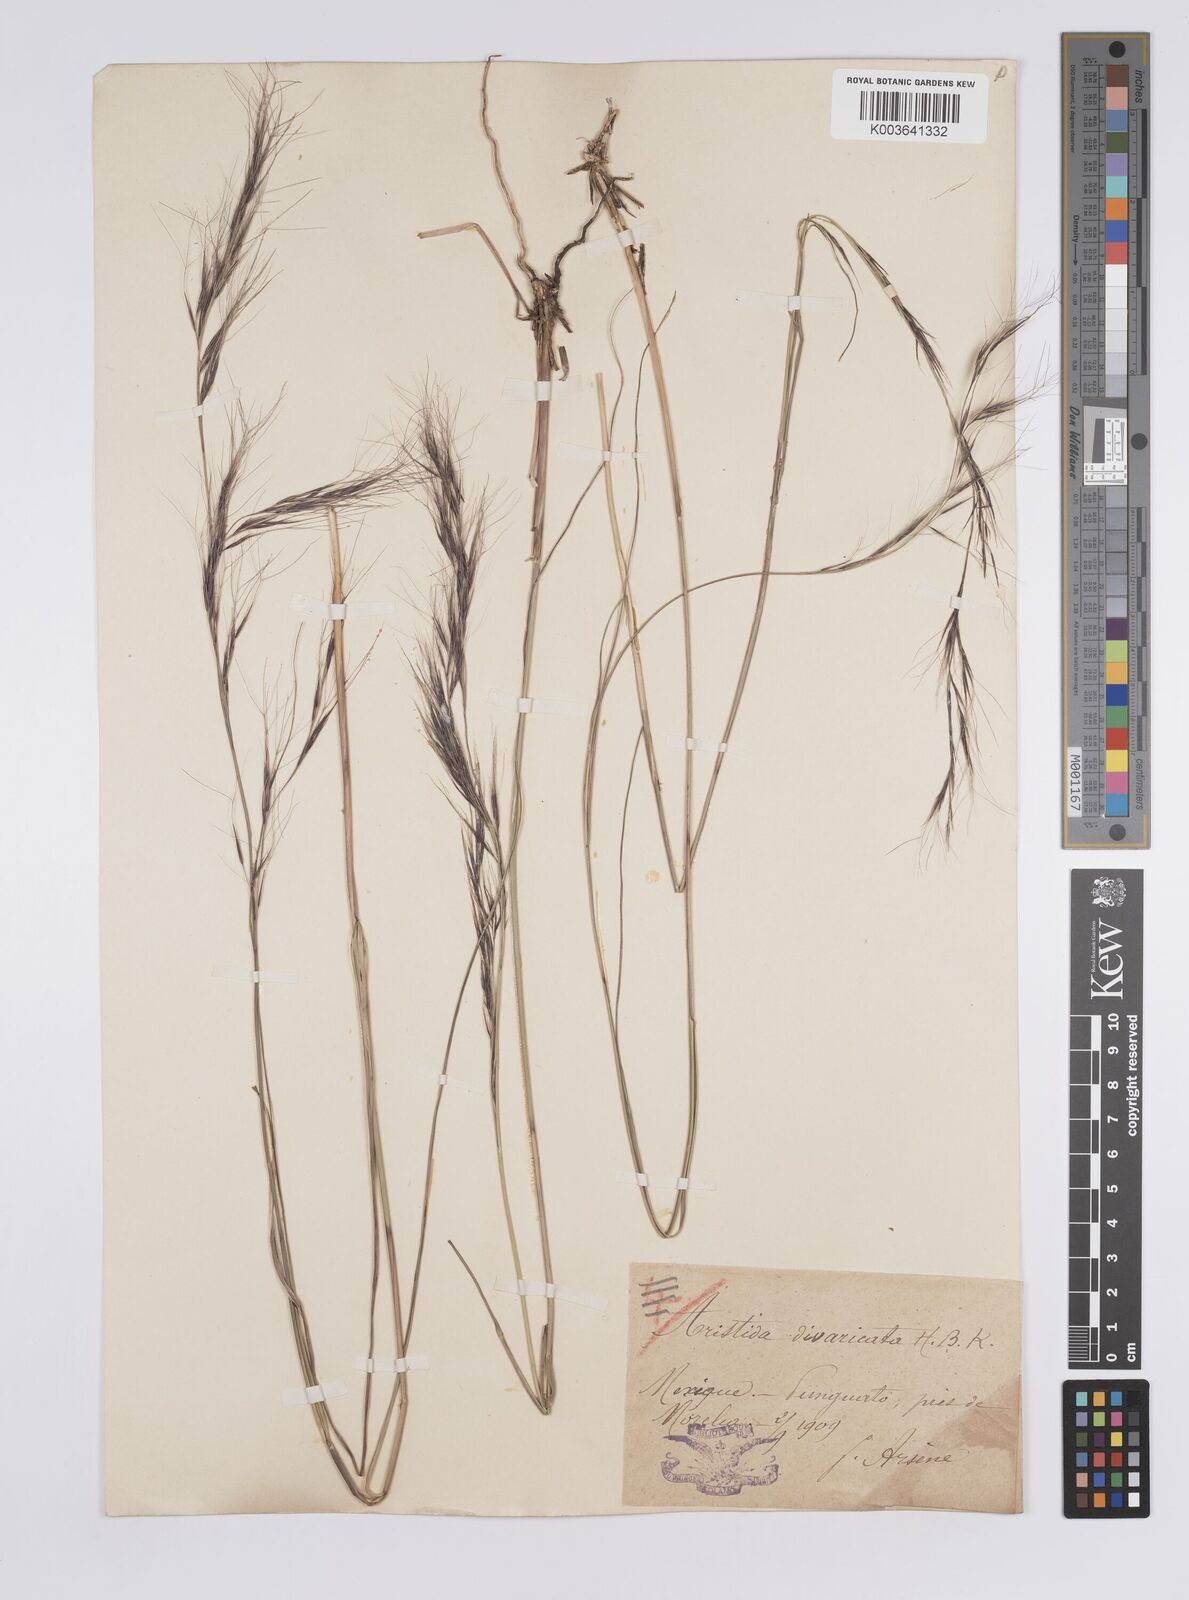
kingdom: Plantae
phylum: Tracheophyta
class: Liliopsida
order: Poales
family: Poaceae
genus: Aristida
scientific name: Aristida divaricata
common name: Poverty grass
